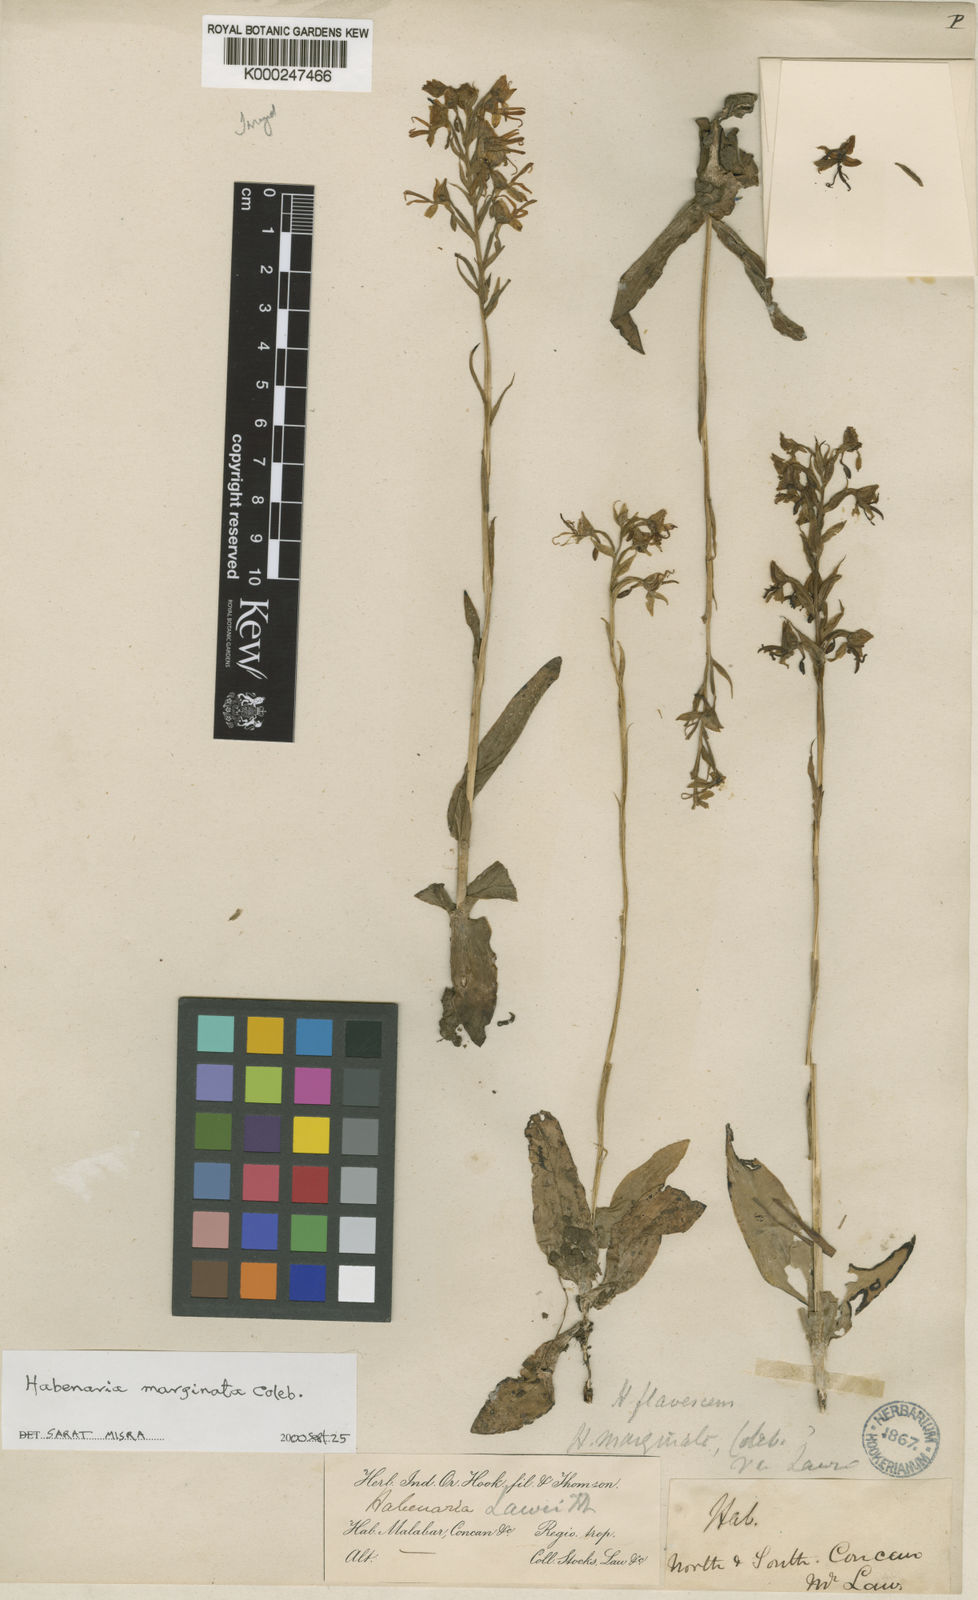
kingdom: Plantae
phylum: Tracheophyta
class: Liliopsida
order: Asparagales
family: Orchidaceae
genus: Habenaria
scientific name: Habenaria marginata
